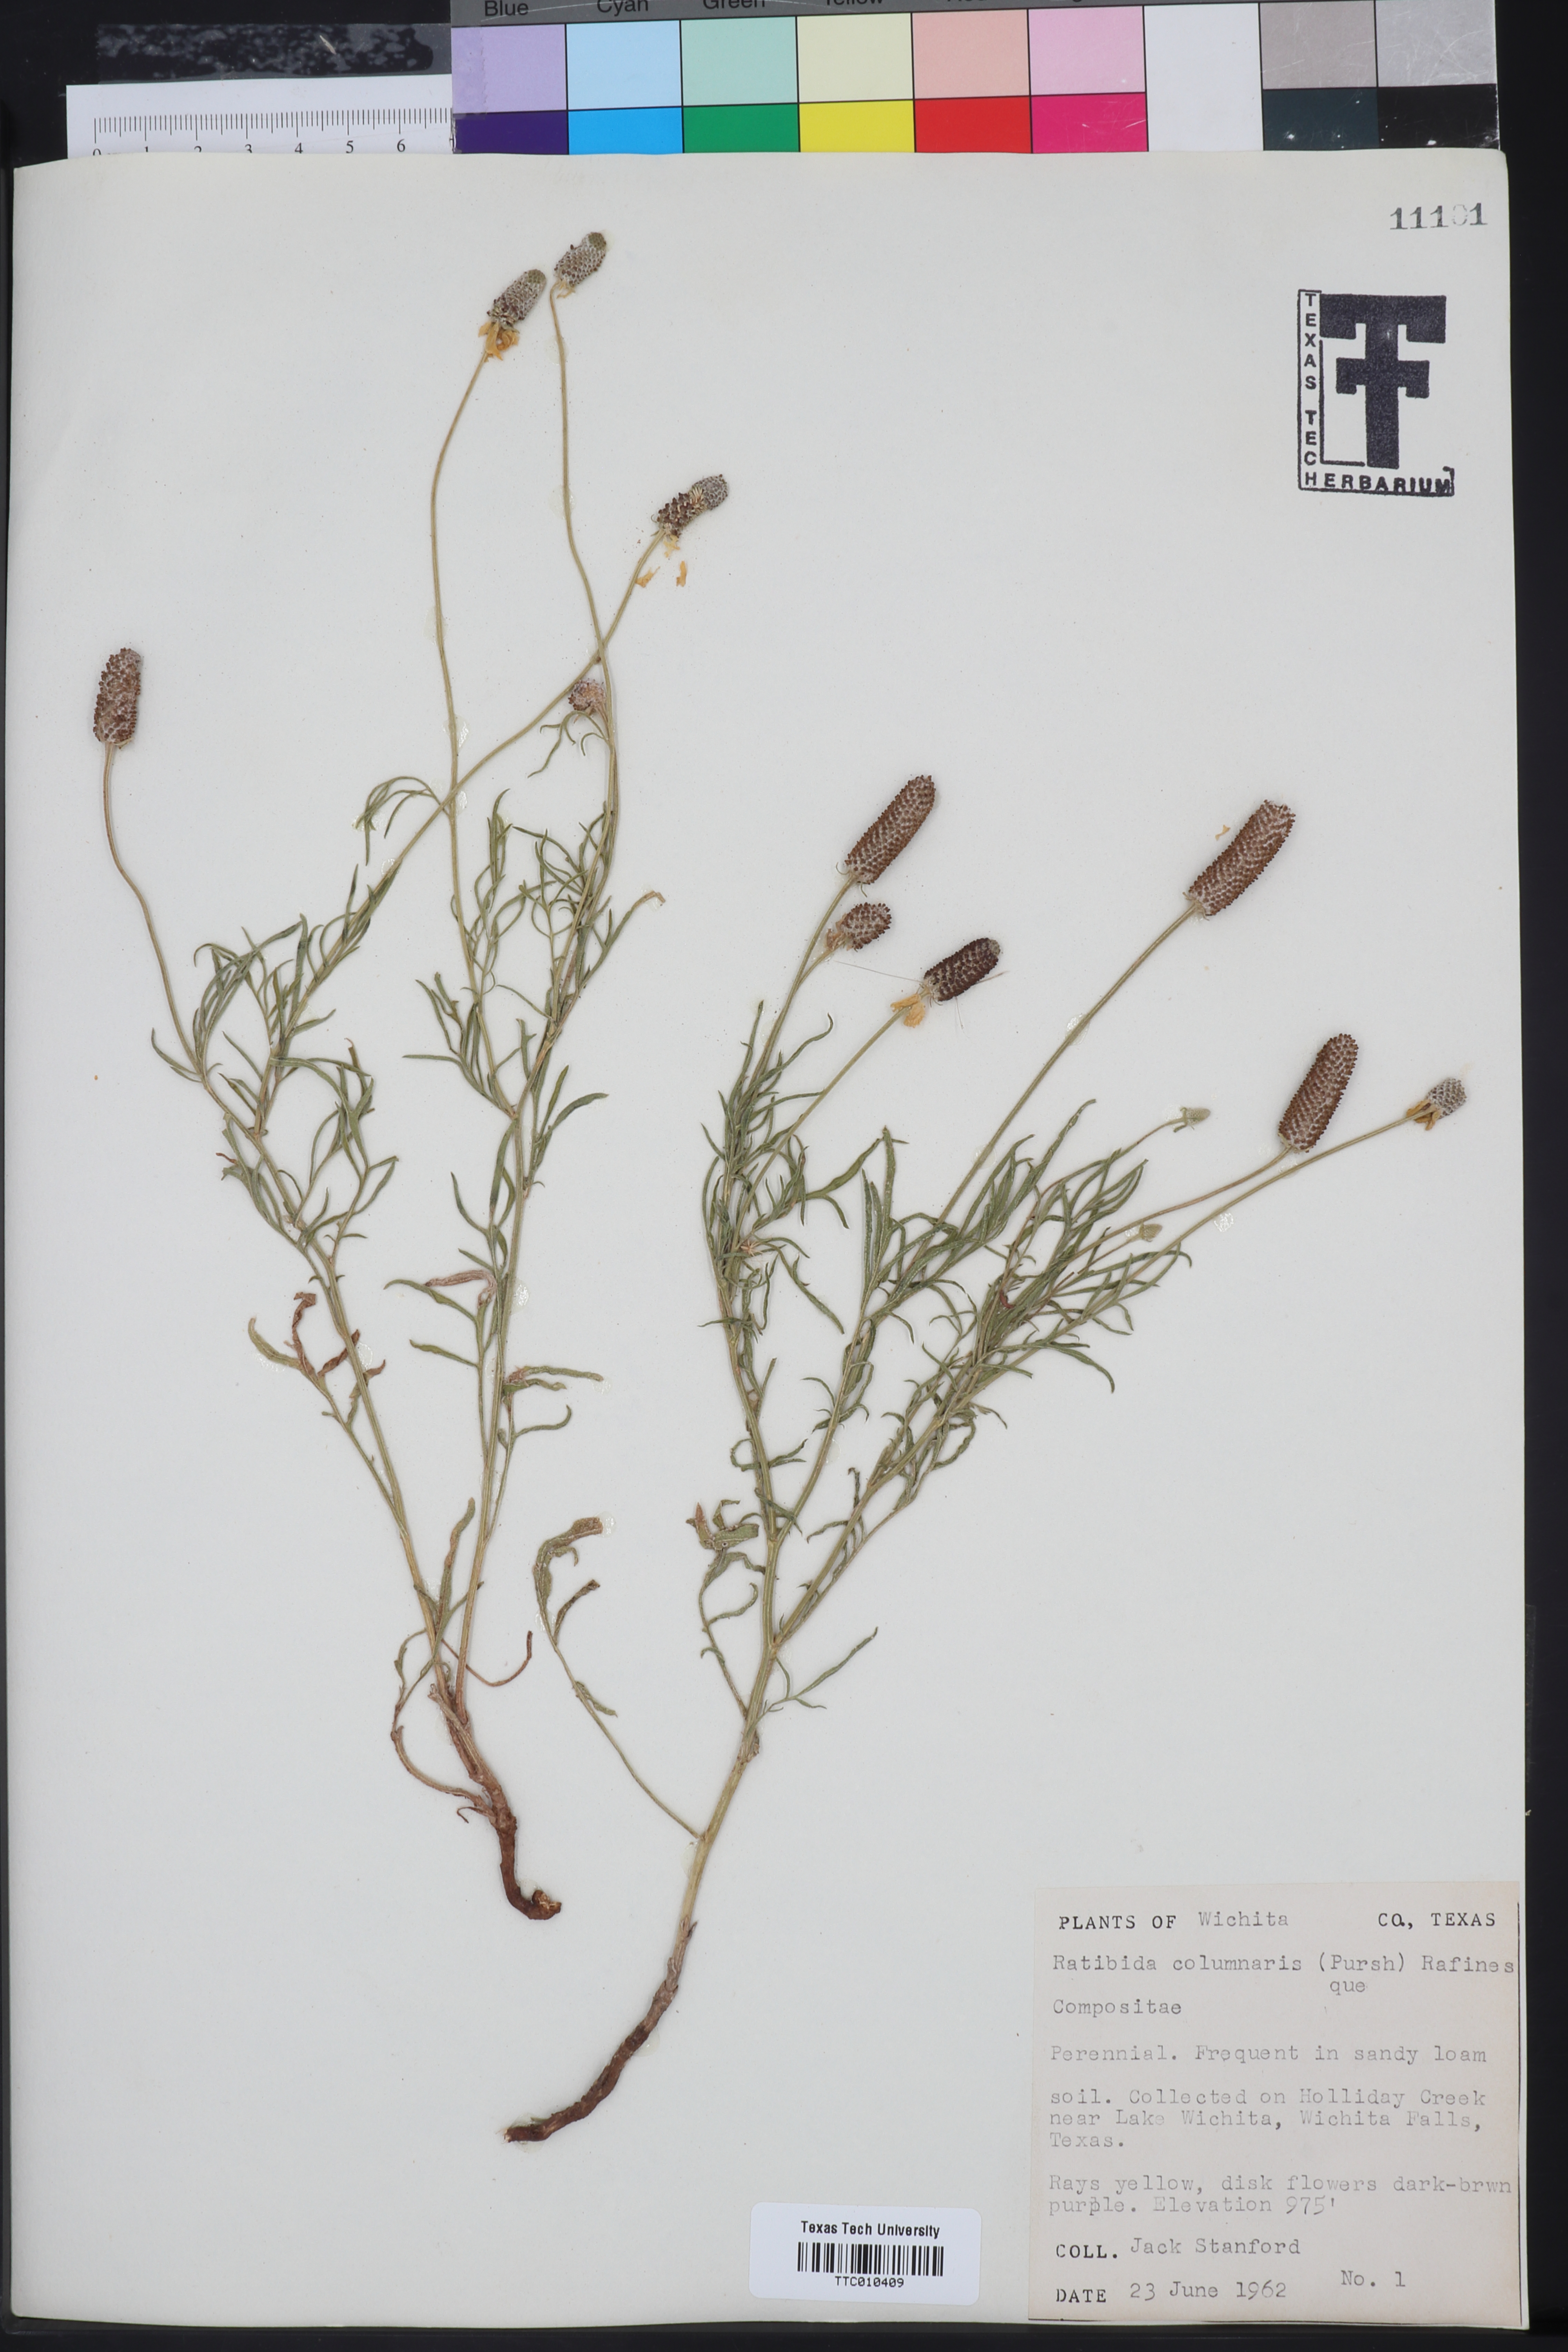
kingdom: Plantae
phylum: Tracheophyta
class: Magnoliopsida
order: Asterales
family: Asteraceae
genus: Ratibida
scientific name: Ratibida columnifera
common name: Prairie coneflower
